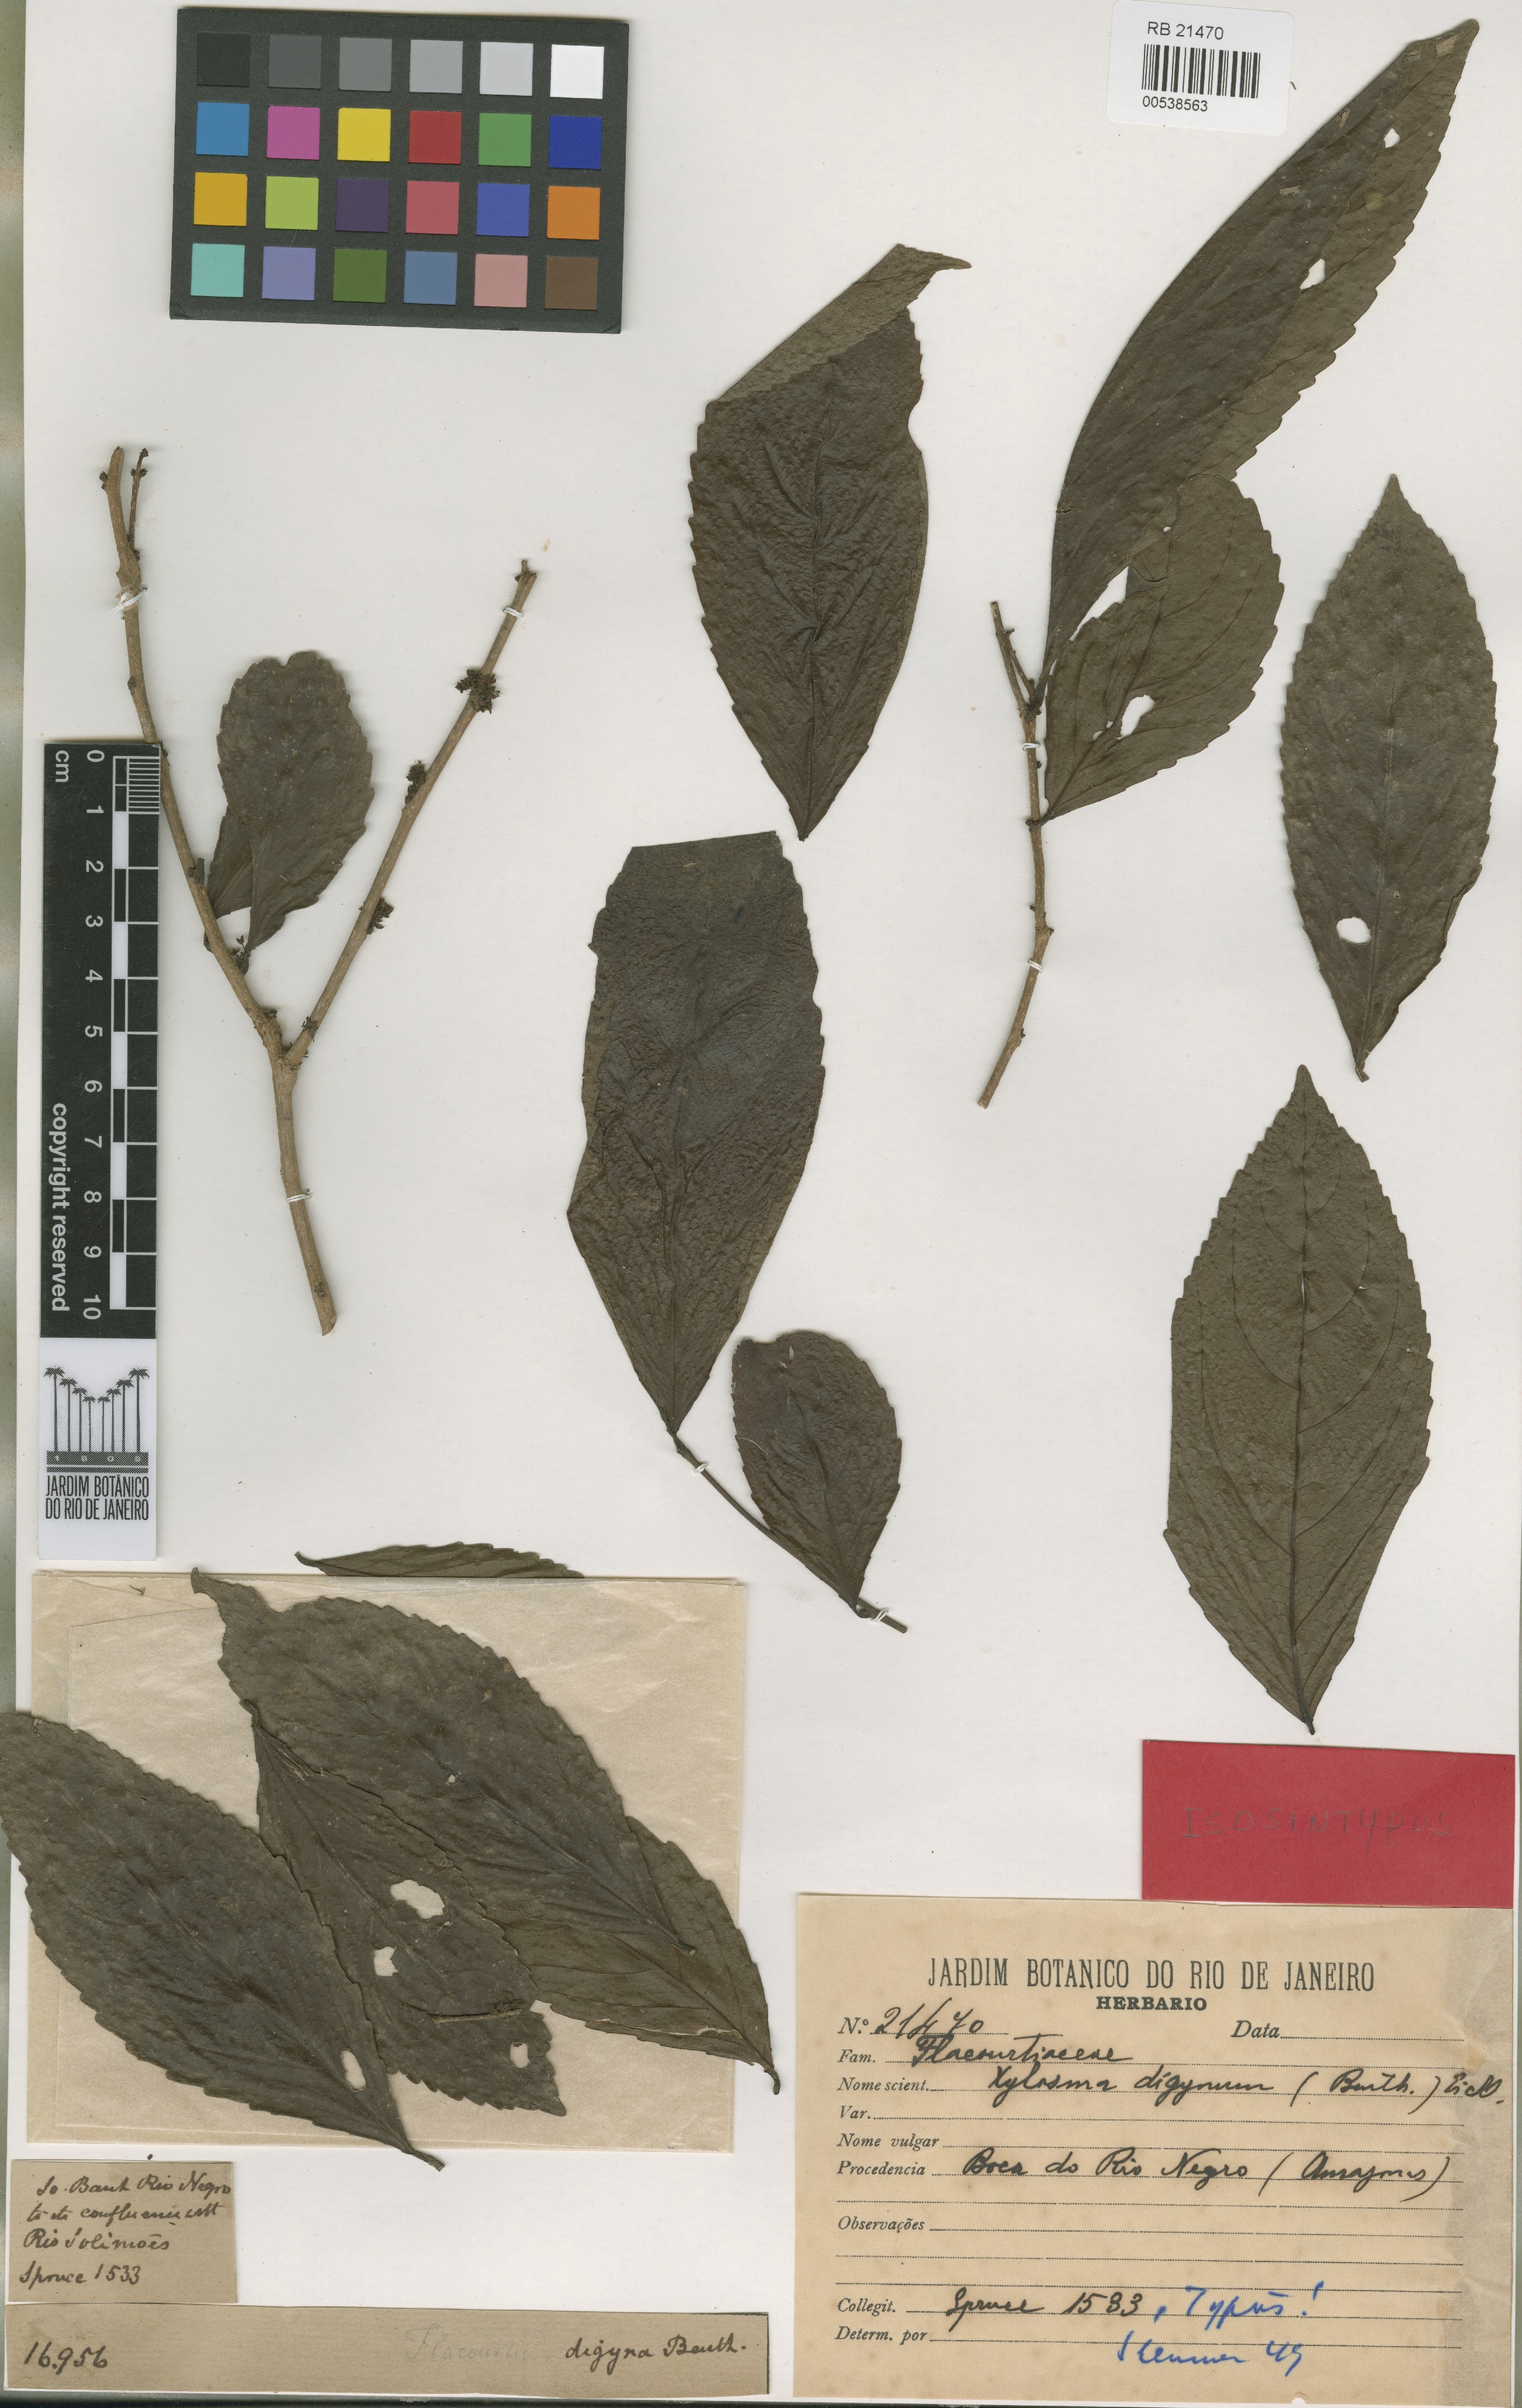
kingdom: Plantae
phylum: Tracheophyta
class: Magnoliopsida
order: Malpighiales
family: Salicaceae
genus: Xylosma
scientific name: Xylosma benthamii
